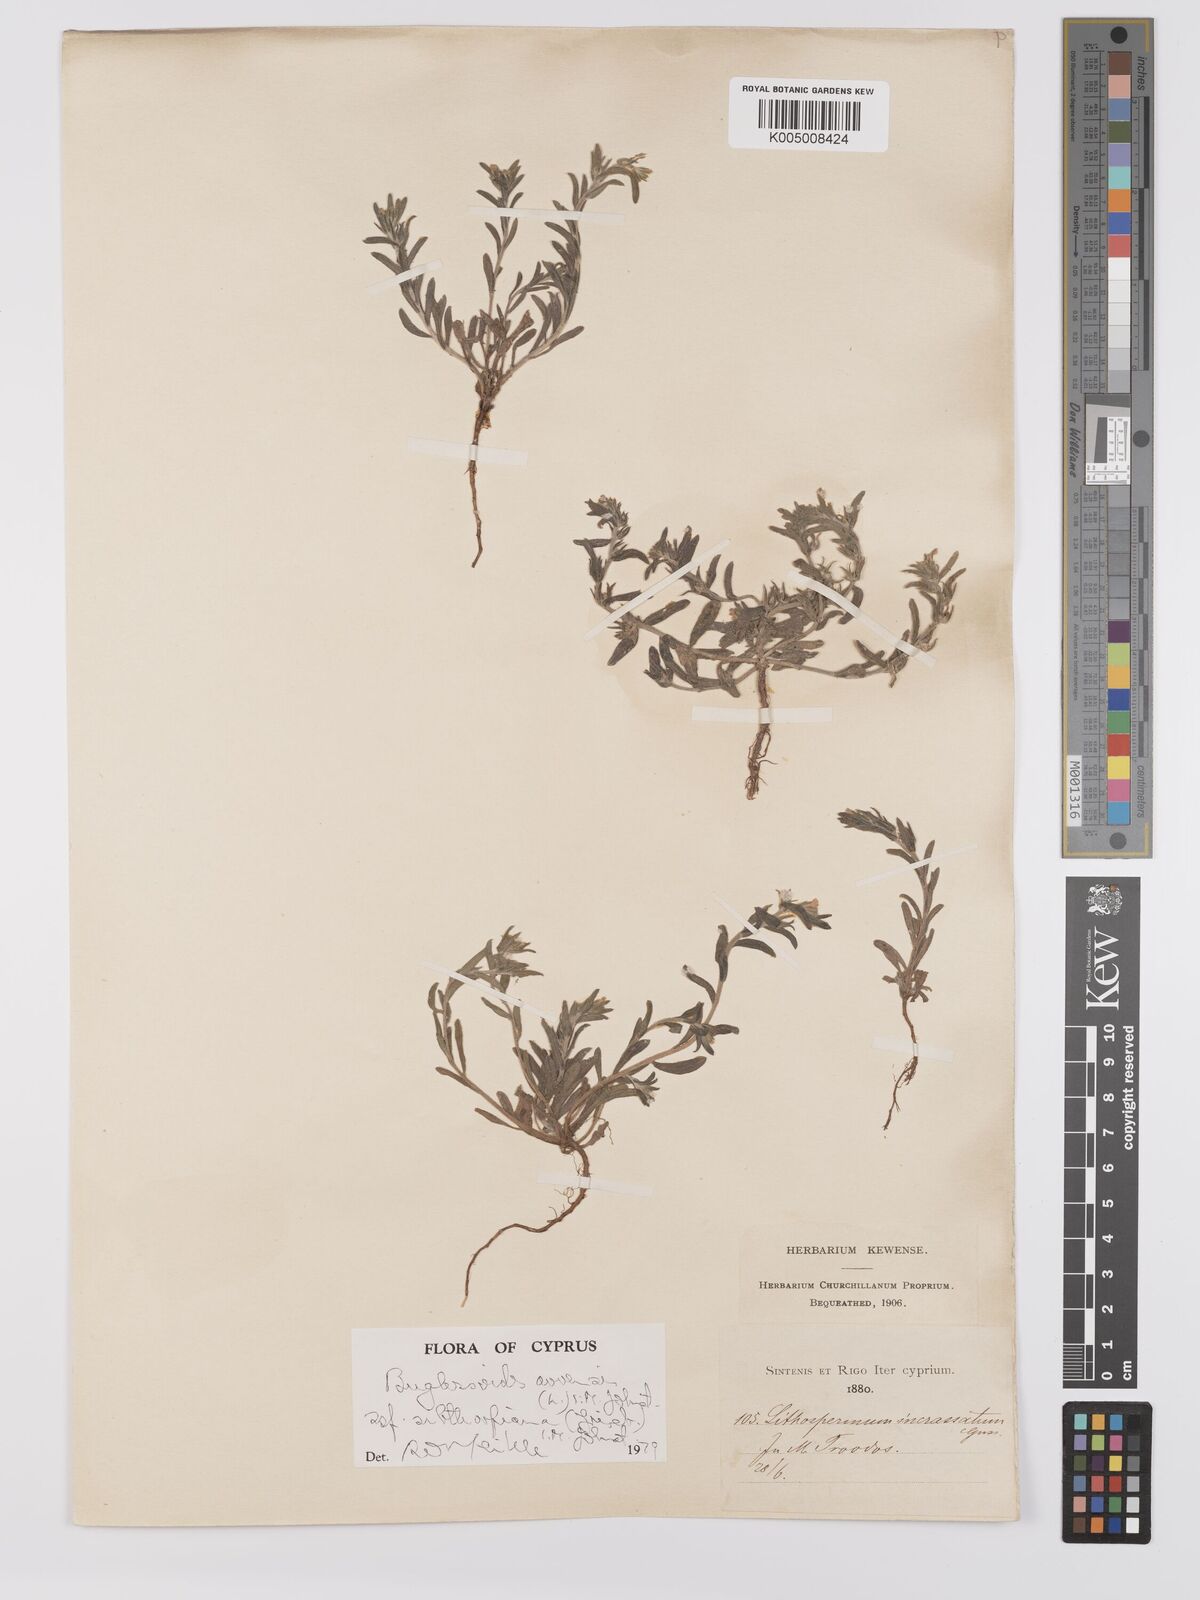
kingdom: Plantae
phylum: Tracheophyta
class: Magnoliopsida
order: Boraginales
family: Boraginaceae
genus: Buglossoides
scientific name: Buglossoides
